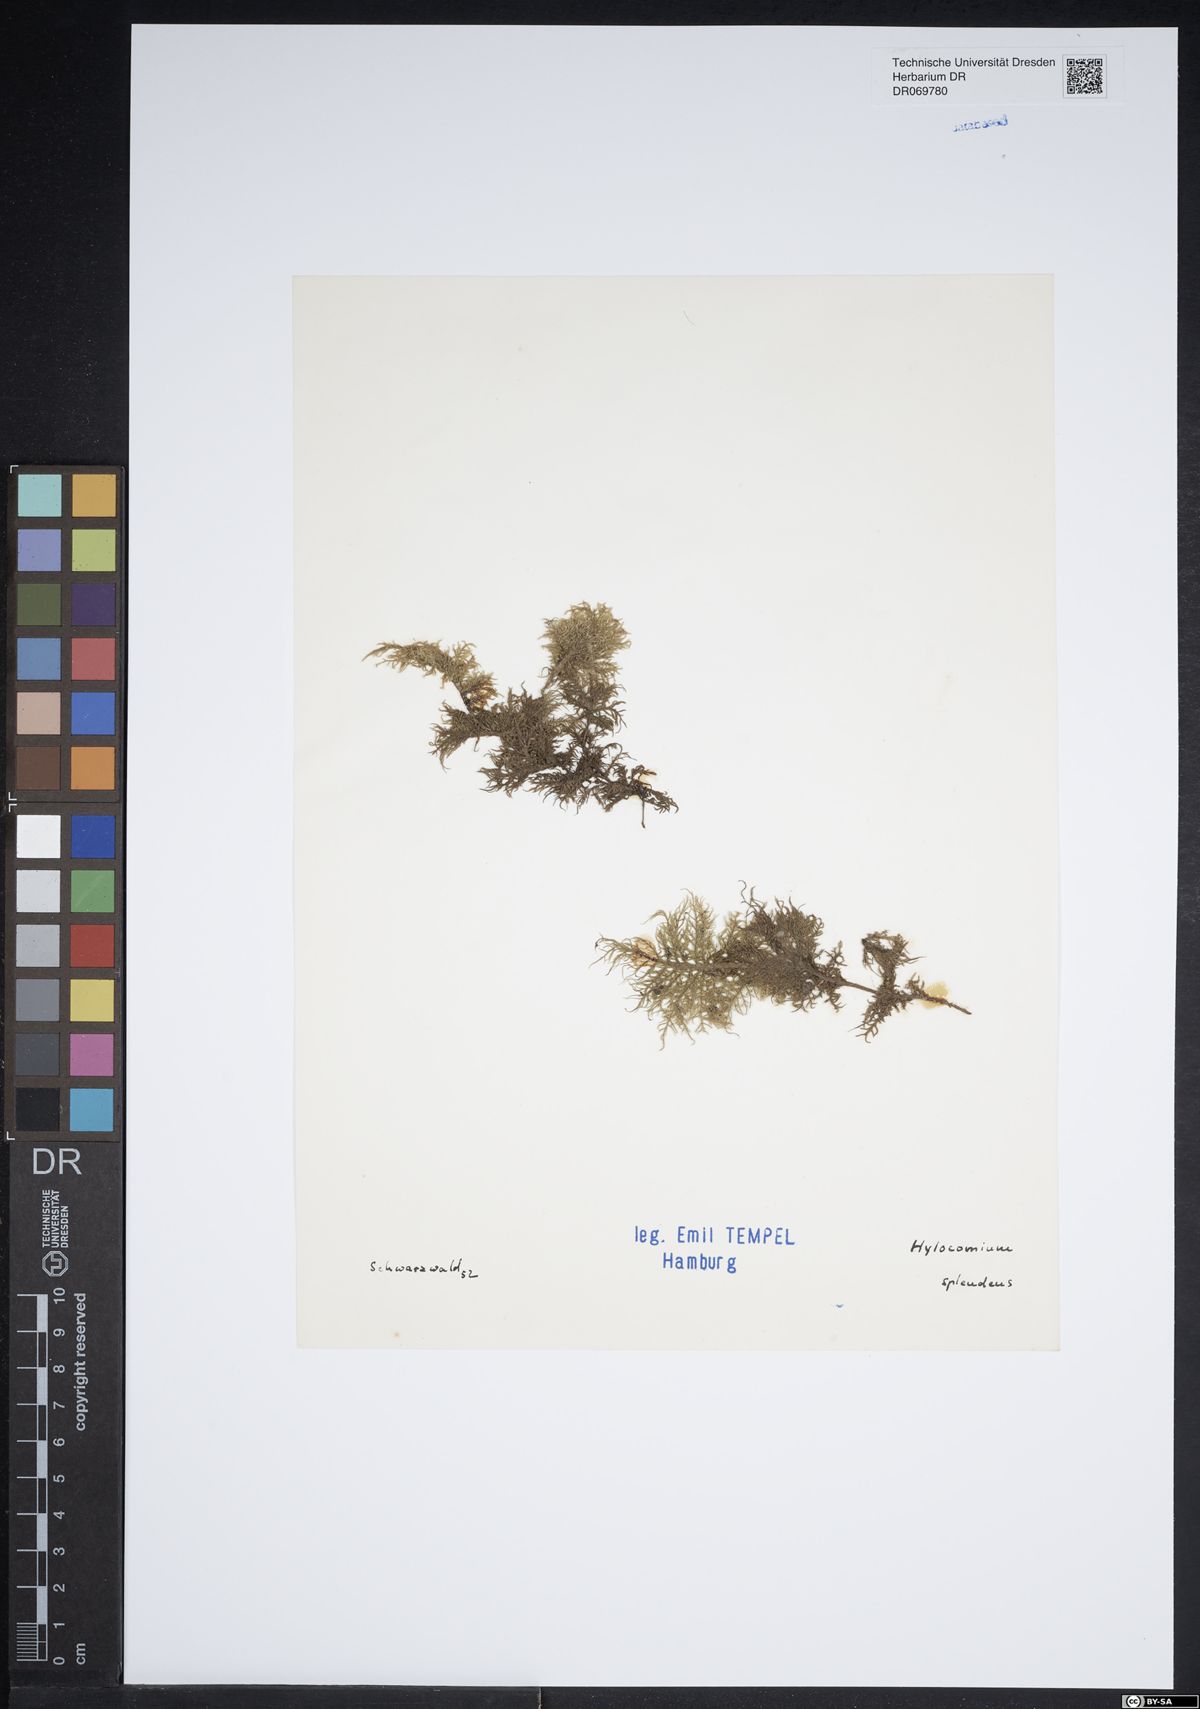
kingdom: Plantae
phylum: Bryophyta
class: Bryopsida
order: Hypnales
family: Hylocomiaceae
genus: Hylocomium
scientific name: Hylocomium splendens
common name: Stairstep moss
